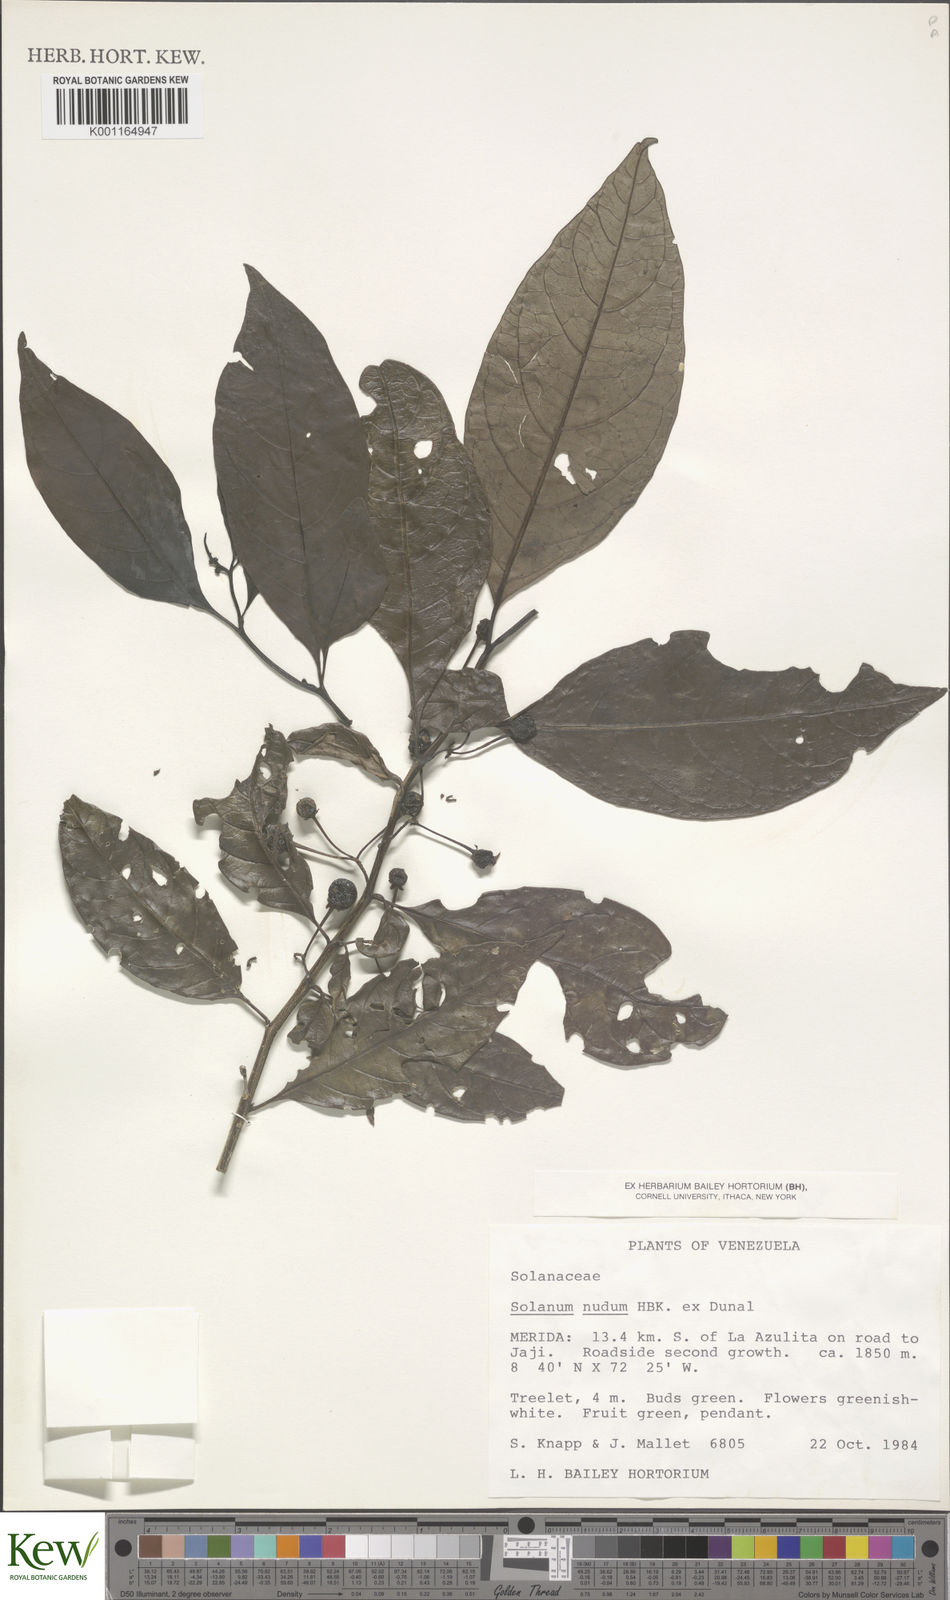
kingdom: Plantae
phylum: Tracheophyta
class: Magnoliopsida
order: Solanales
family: Solanaceae
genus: Solanum
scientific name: Solanum nudum
